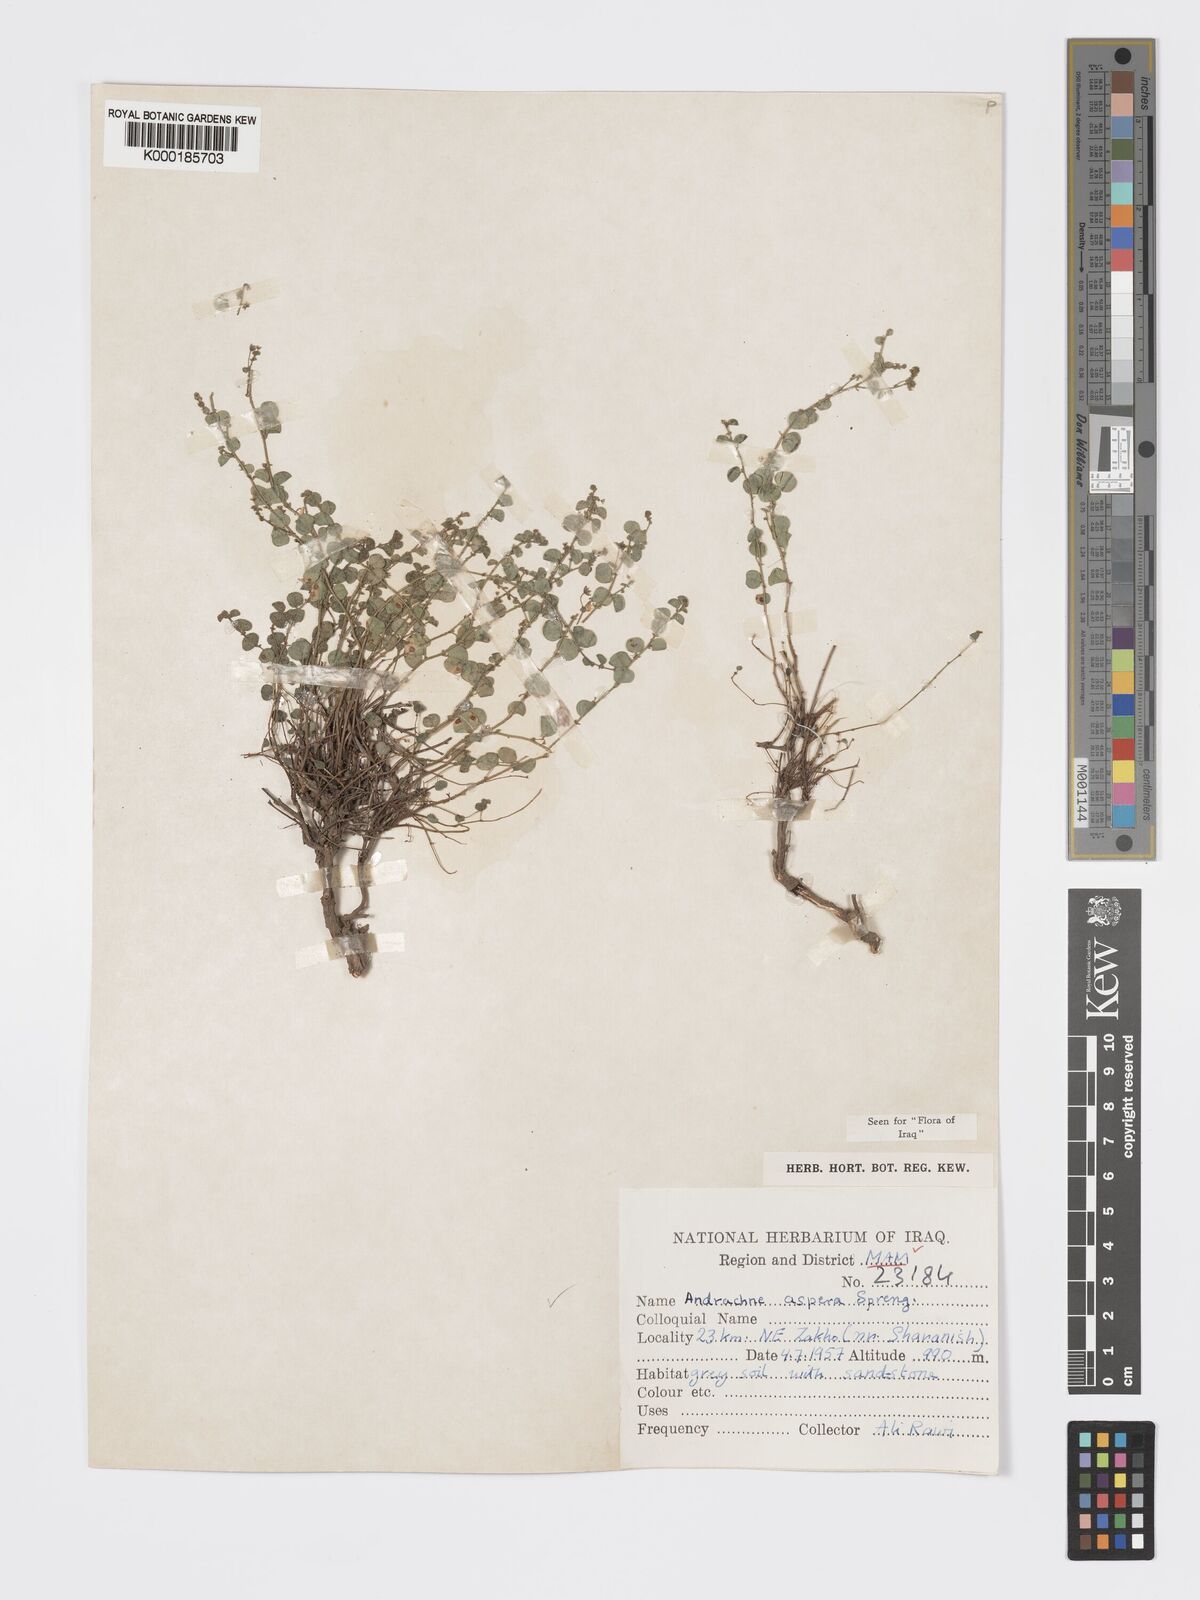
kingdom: Plantae
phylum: Tracheophyta
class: Magnoliopsida
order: Malpighiales
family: Phyllanthaceae
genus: Andrachne
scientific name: Andrachne aspera
